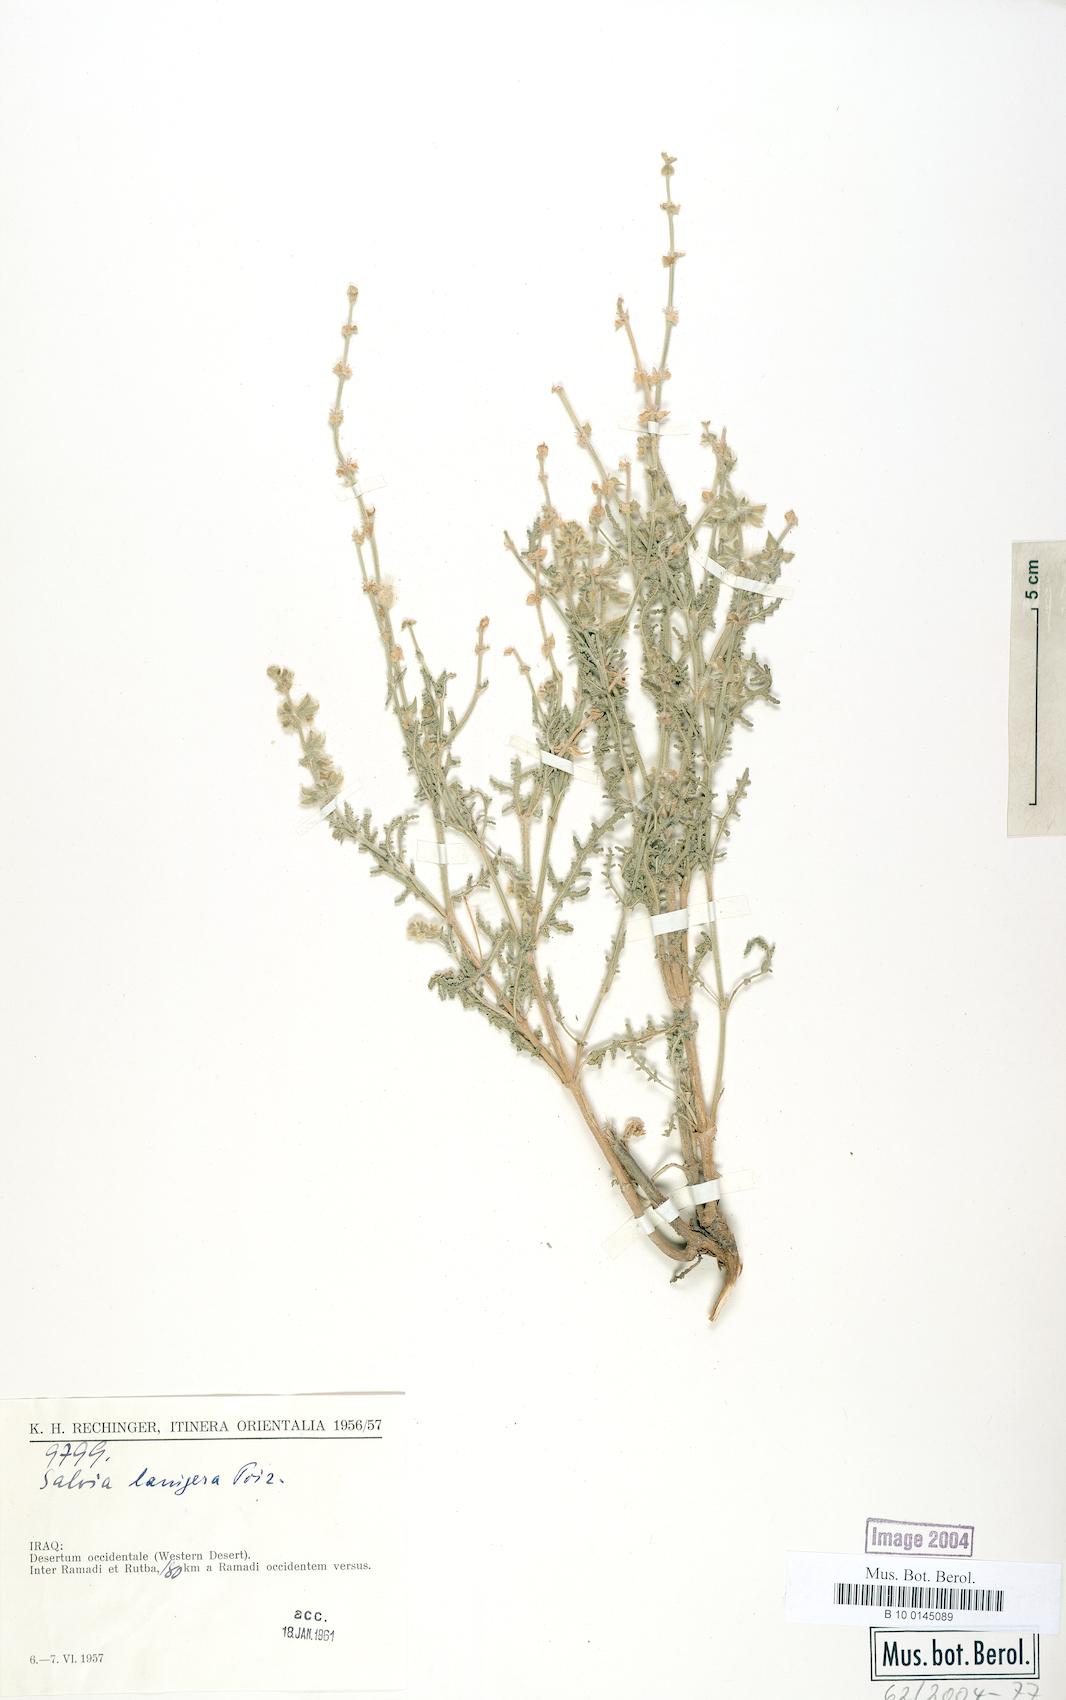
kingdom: Plantae
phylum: Tracheophyta
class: Magnoliopsida
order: Lamiales
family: Lamiaceae
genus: Salvia
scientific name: Salvia lanigera
